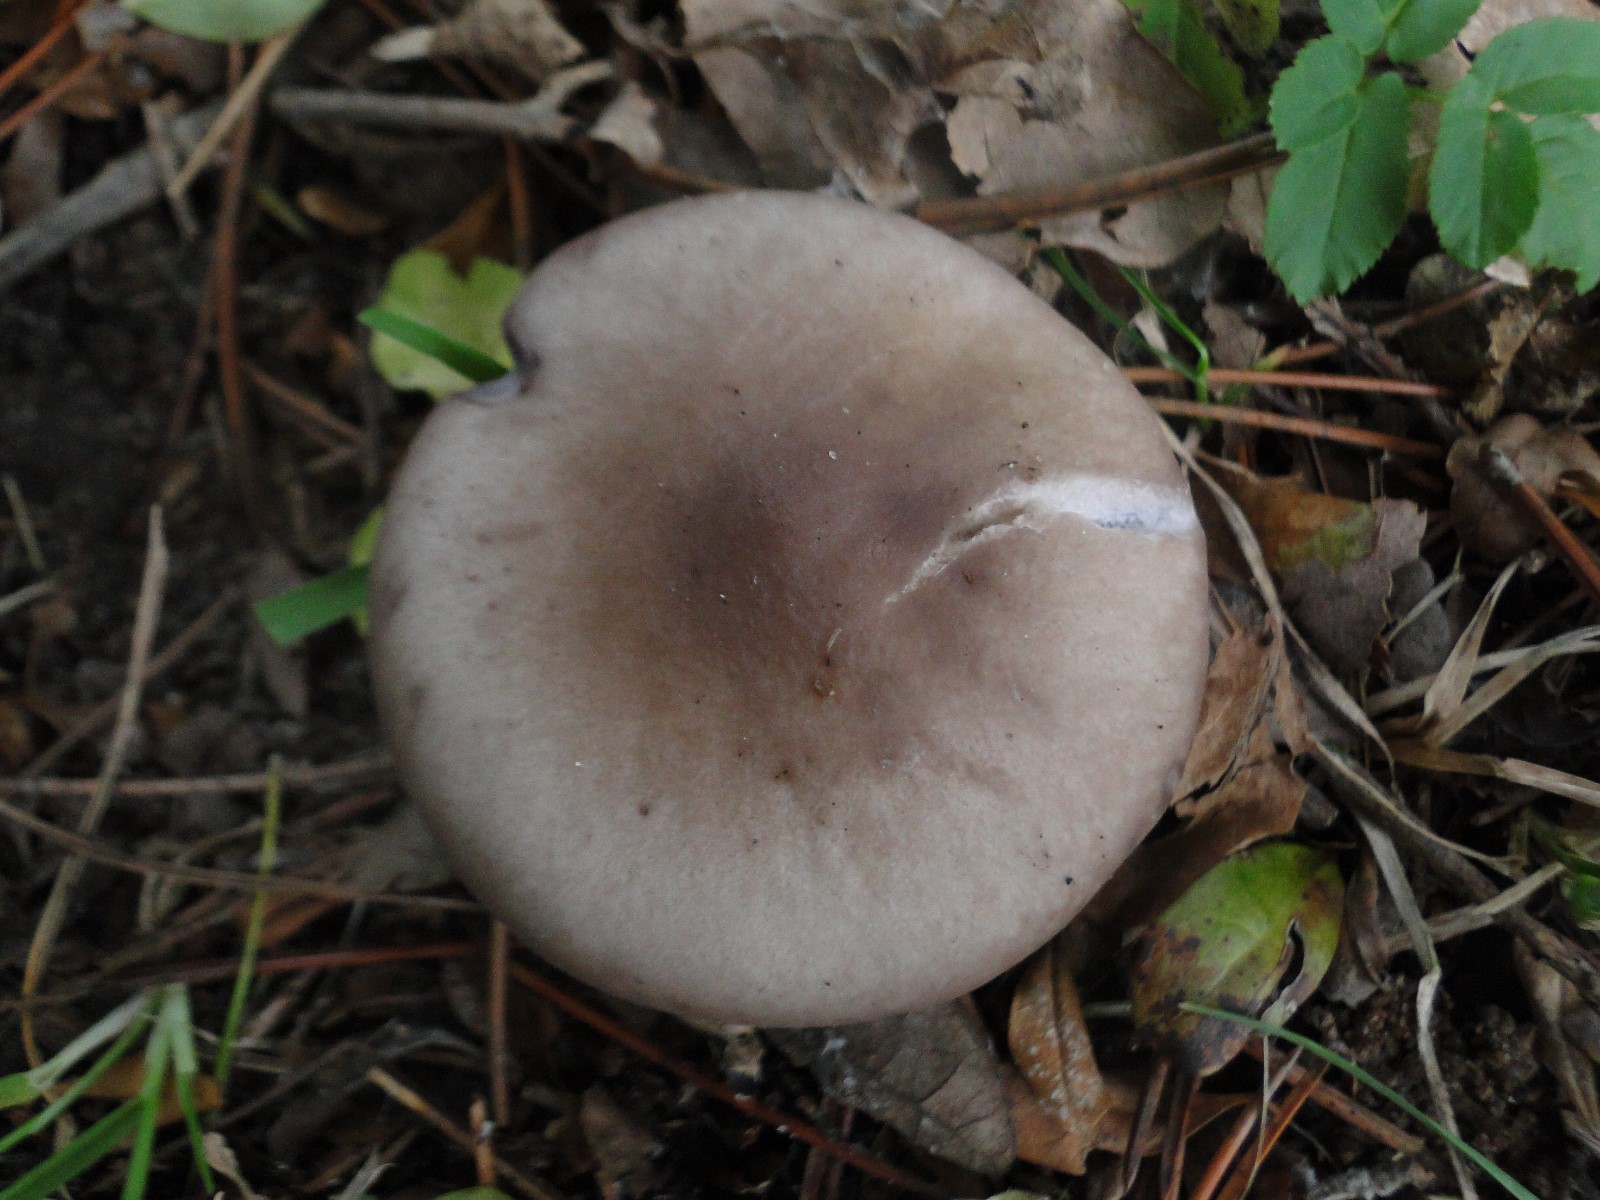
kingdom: Fungi
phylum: Basidiomycota
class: Agaricomycetes
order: Agaricales
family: Tricholomataceae
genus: Lepista
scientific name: Lepista personata
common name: bleg hekseringshat
